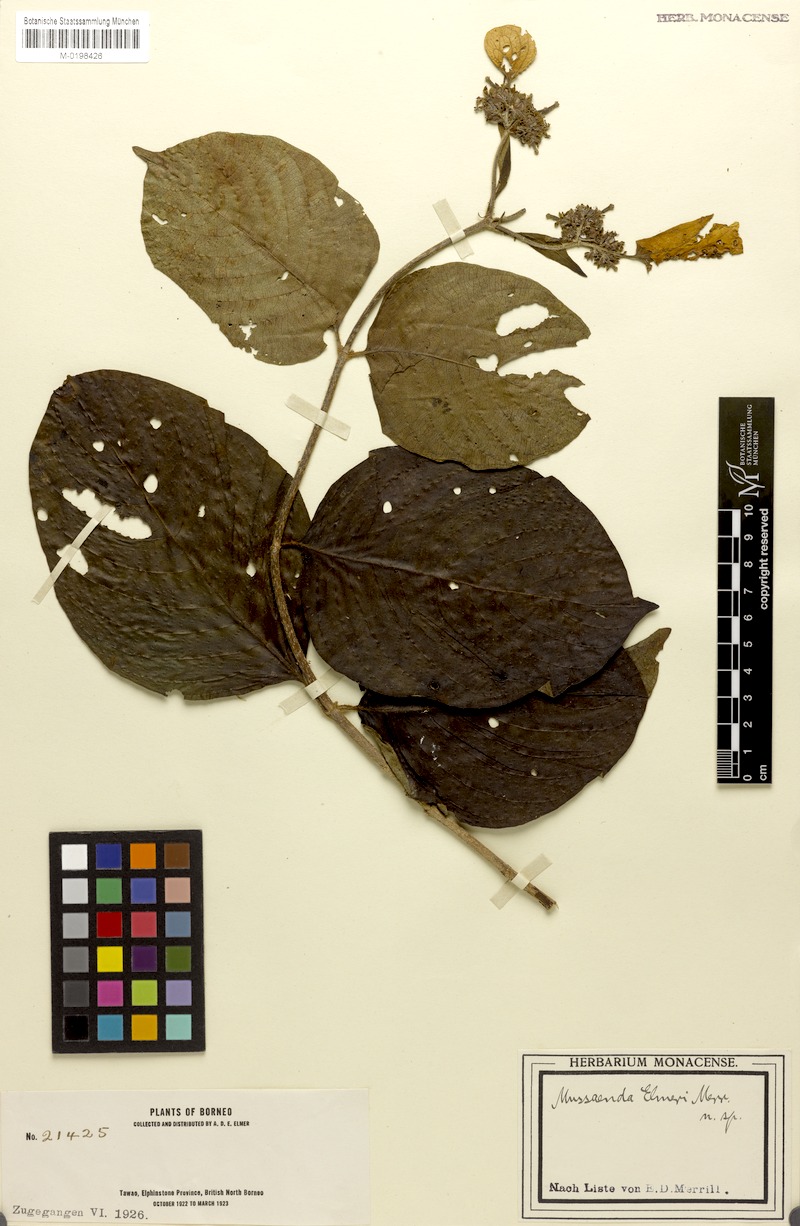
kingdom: Plantae
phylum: Tracheophyta
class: Magnoliopsida
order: Gentianales
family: Rubiaceae
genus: Mussaenda
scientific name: Mussaenda elmeri
